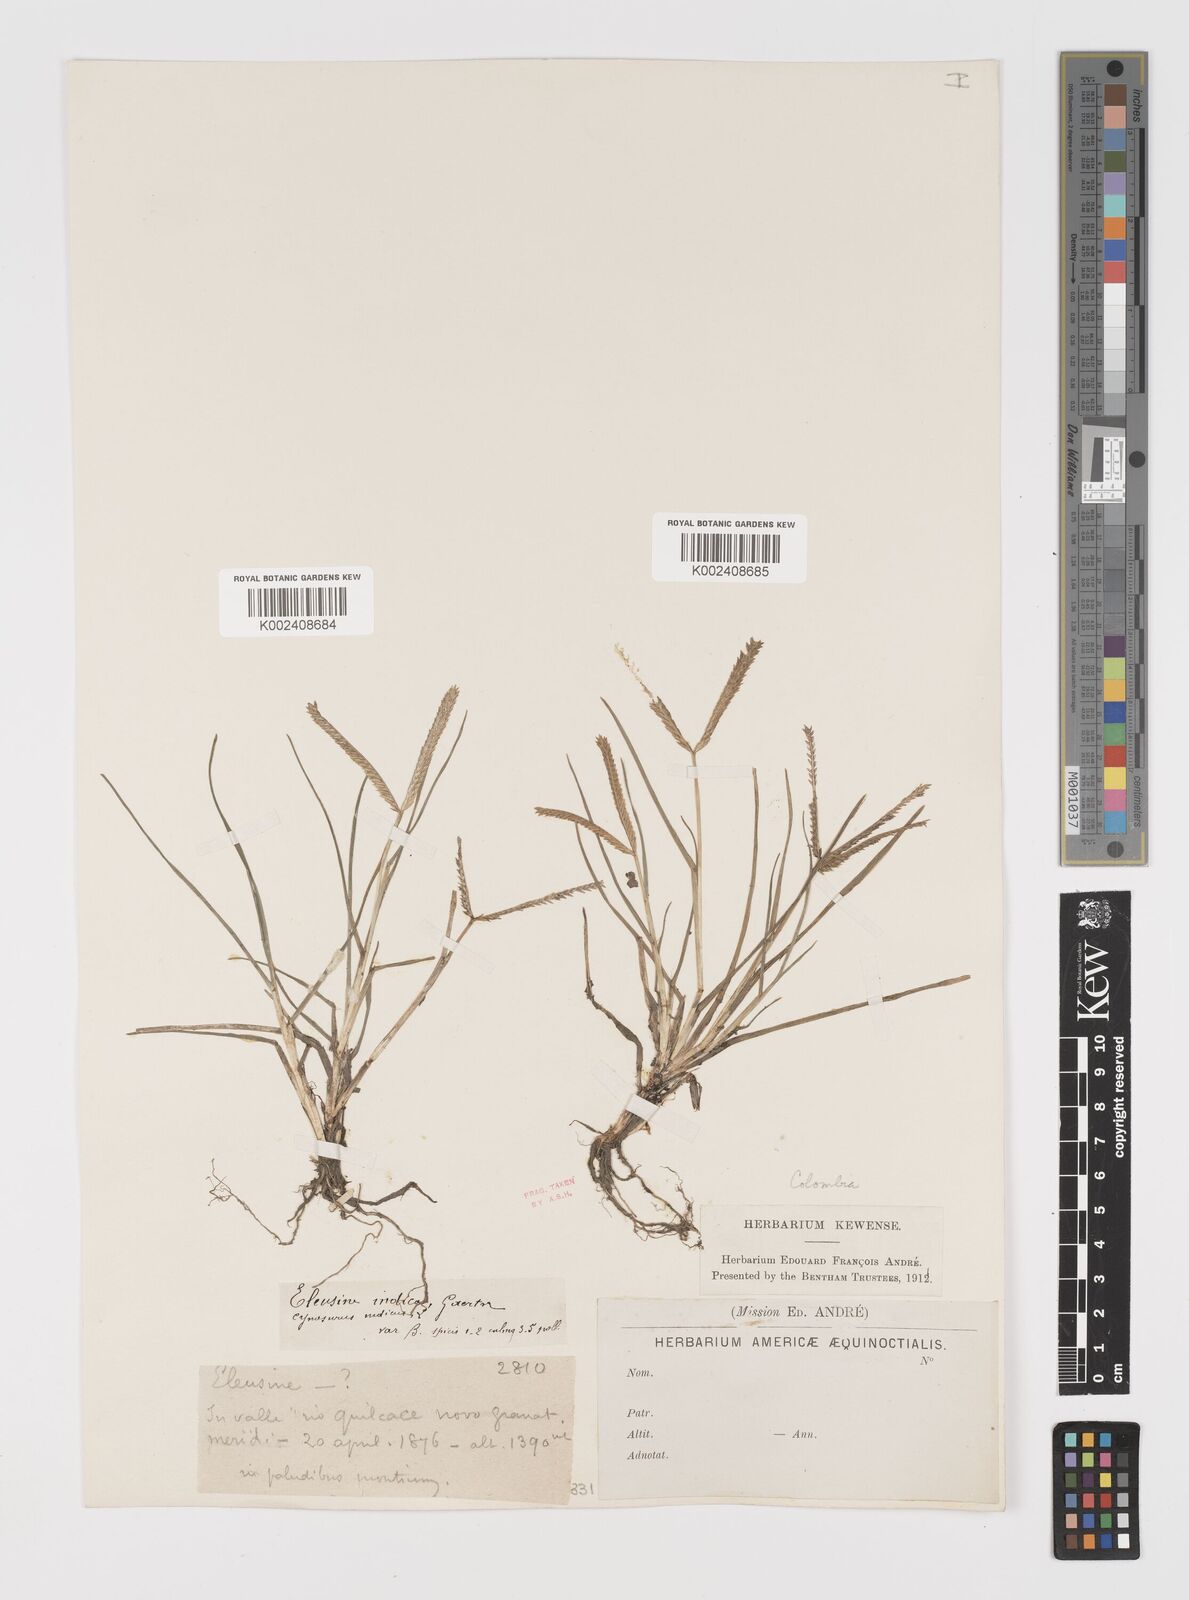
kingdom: Plantae
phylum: Tracheophyta
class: Liliopsida
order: Poales
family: Poaceae
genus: Eleusine
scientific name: Eleusine indica
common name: Yard-grass
